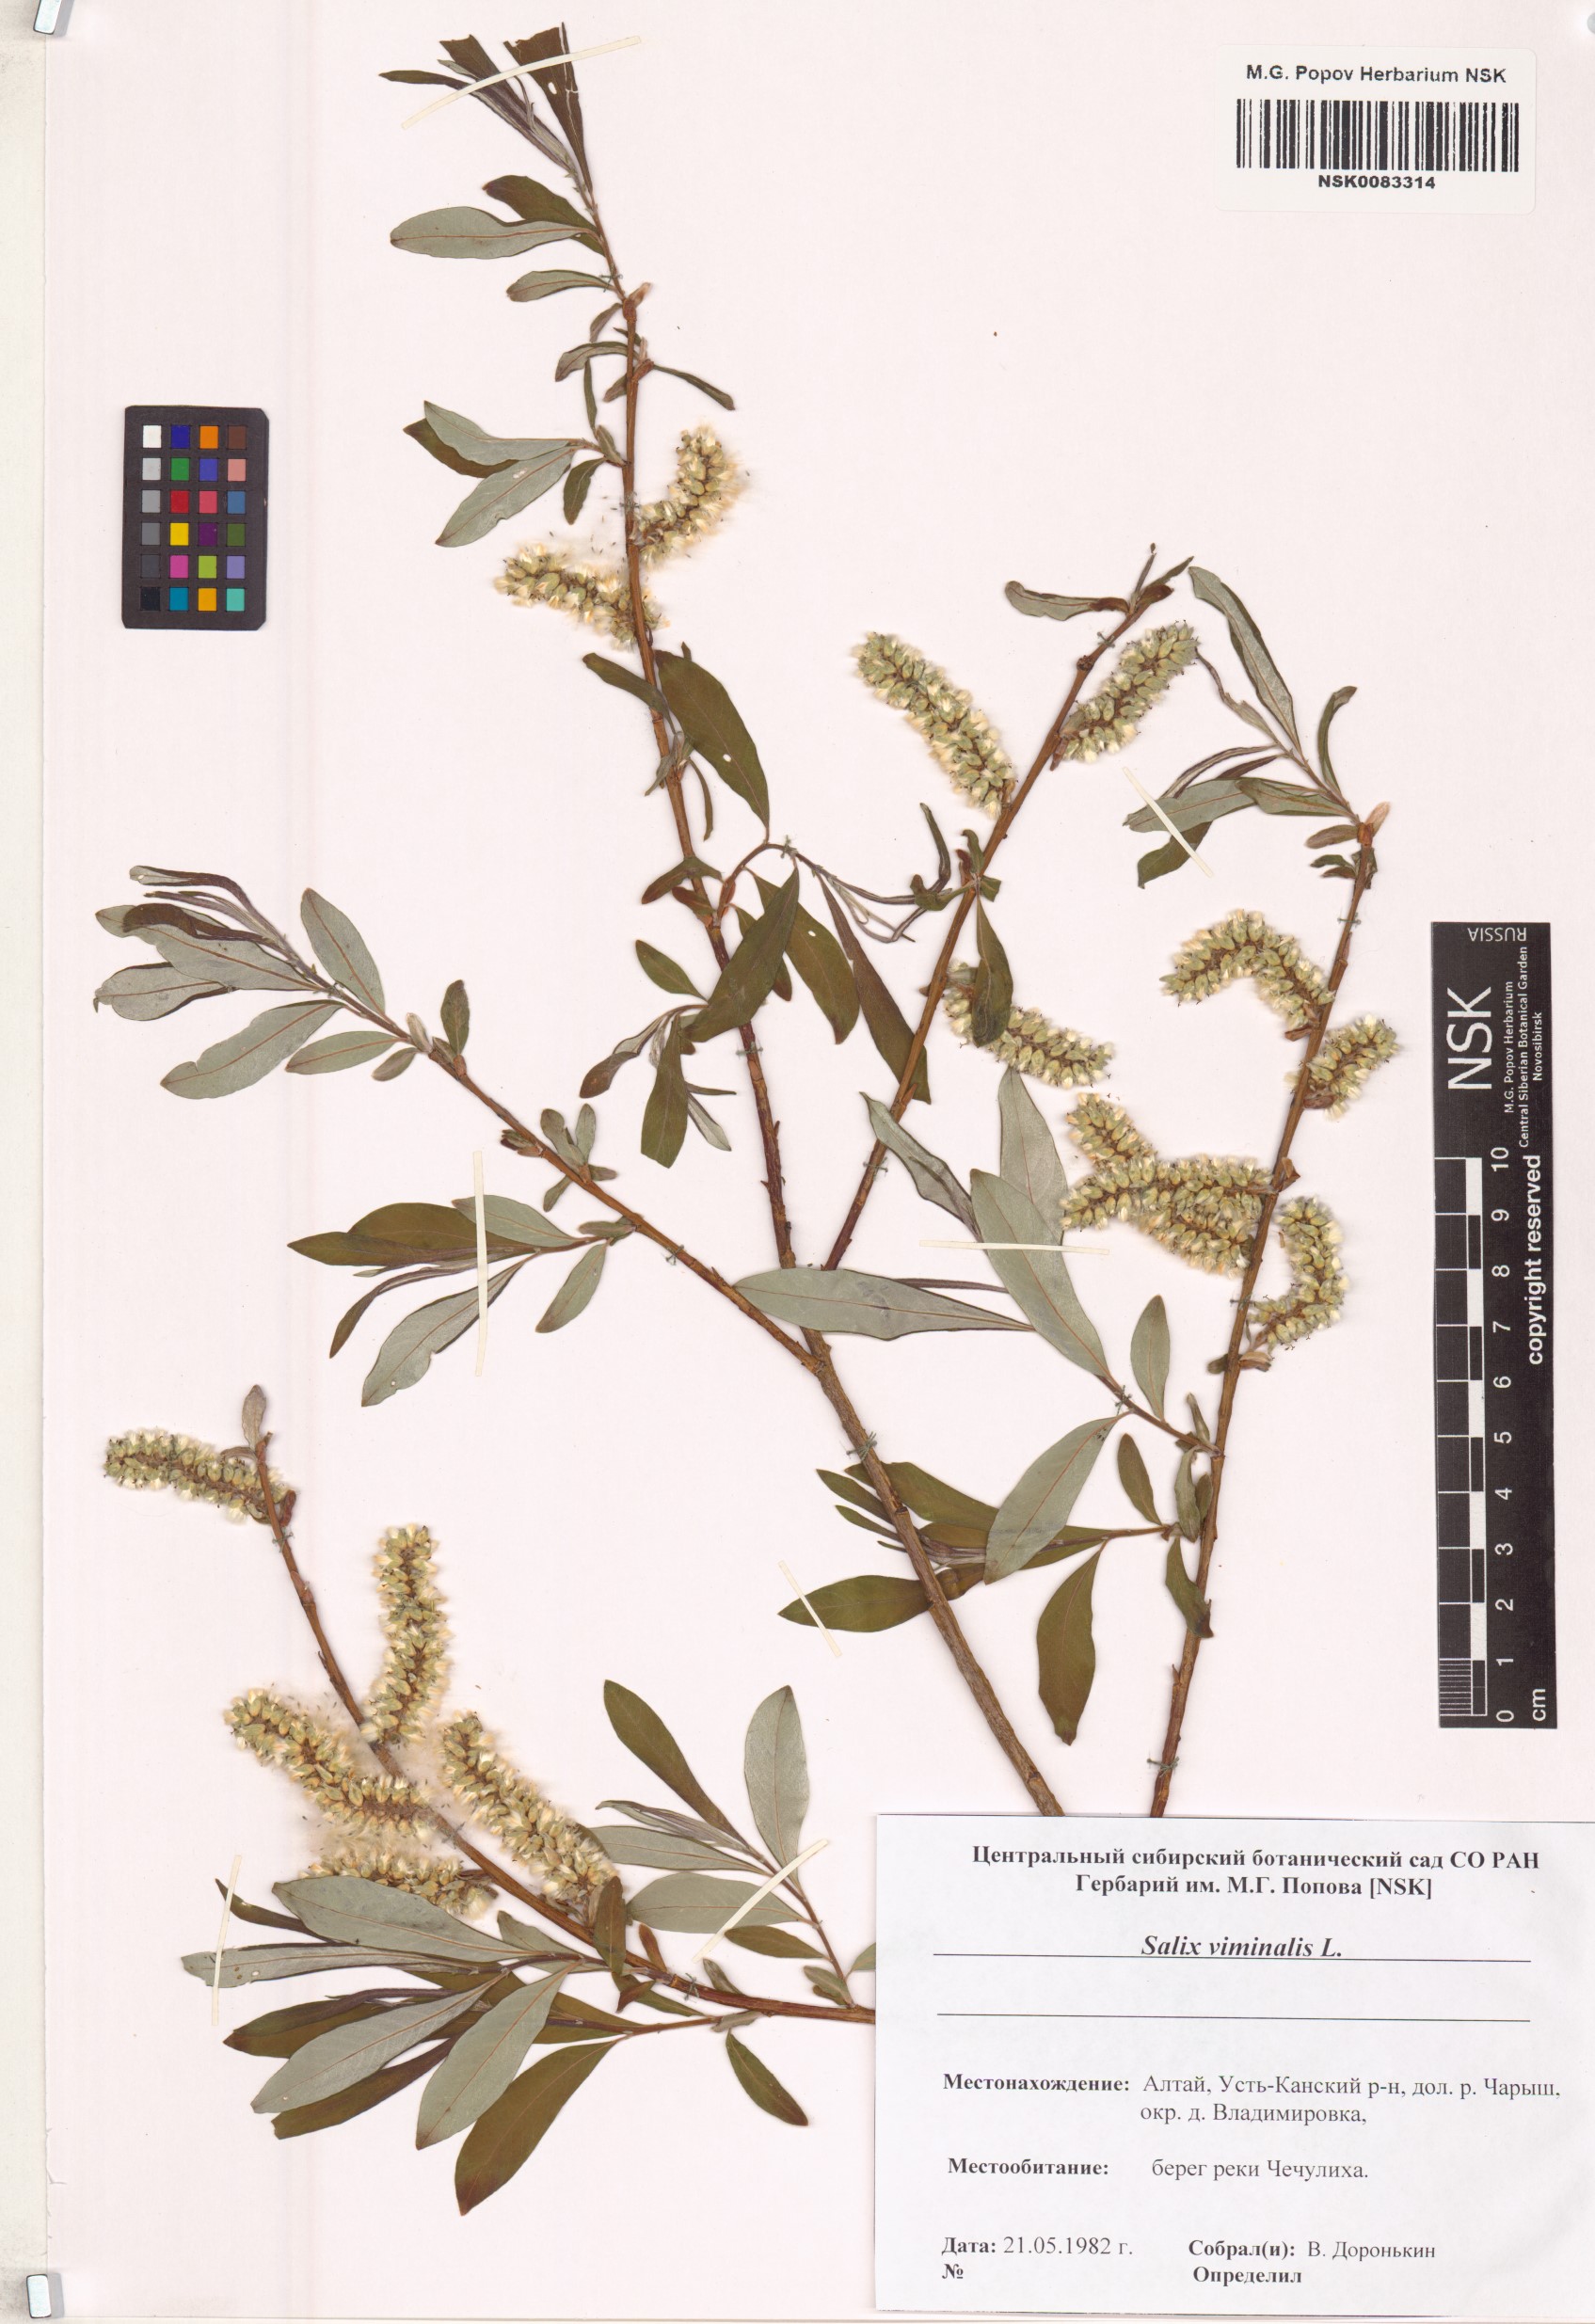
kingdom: Plantae
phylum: Tracheophyta
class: Magnoliopsida
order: Malpighiales
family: Salicaceae
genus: Salix
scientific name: Salix viminalis
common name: Osier
